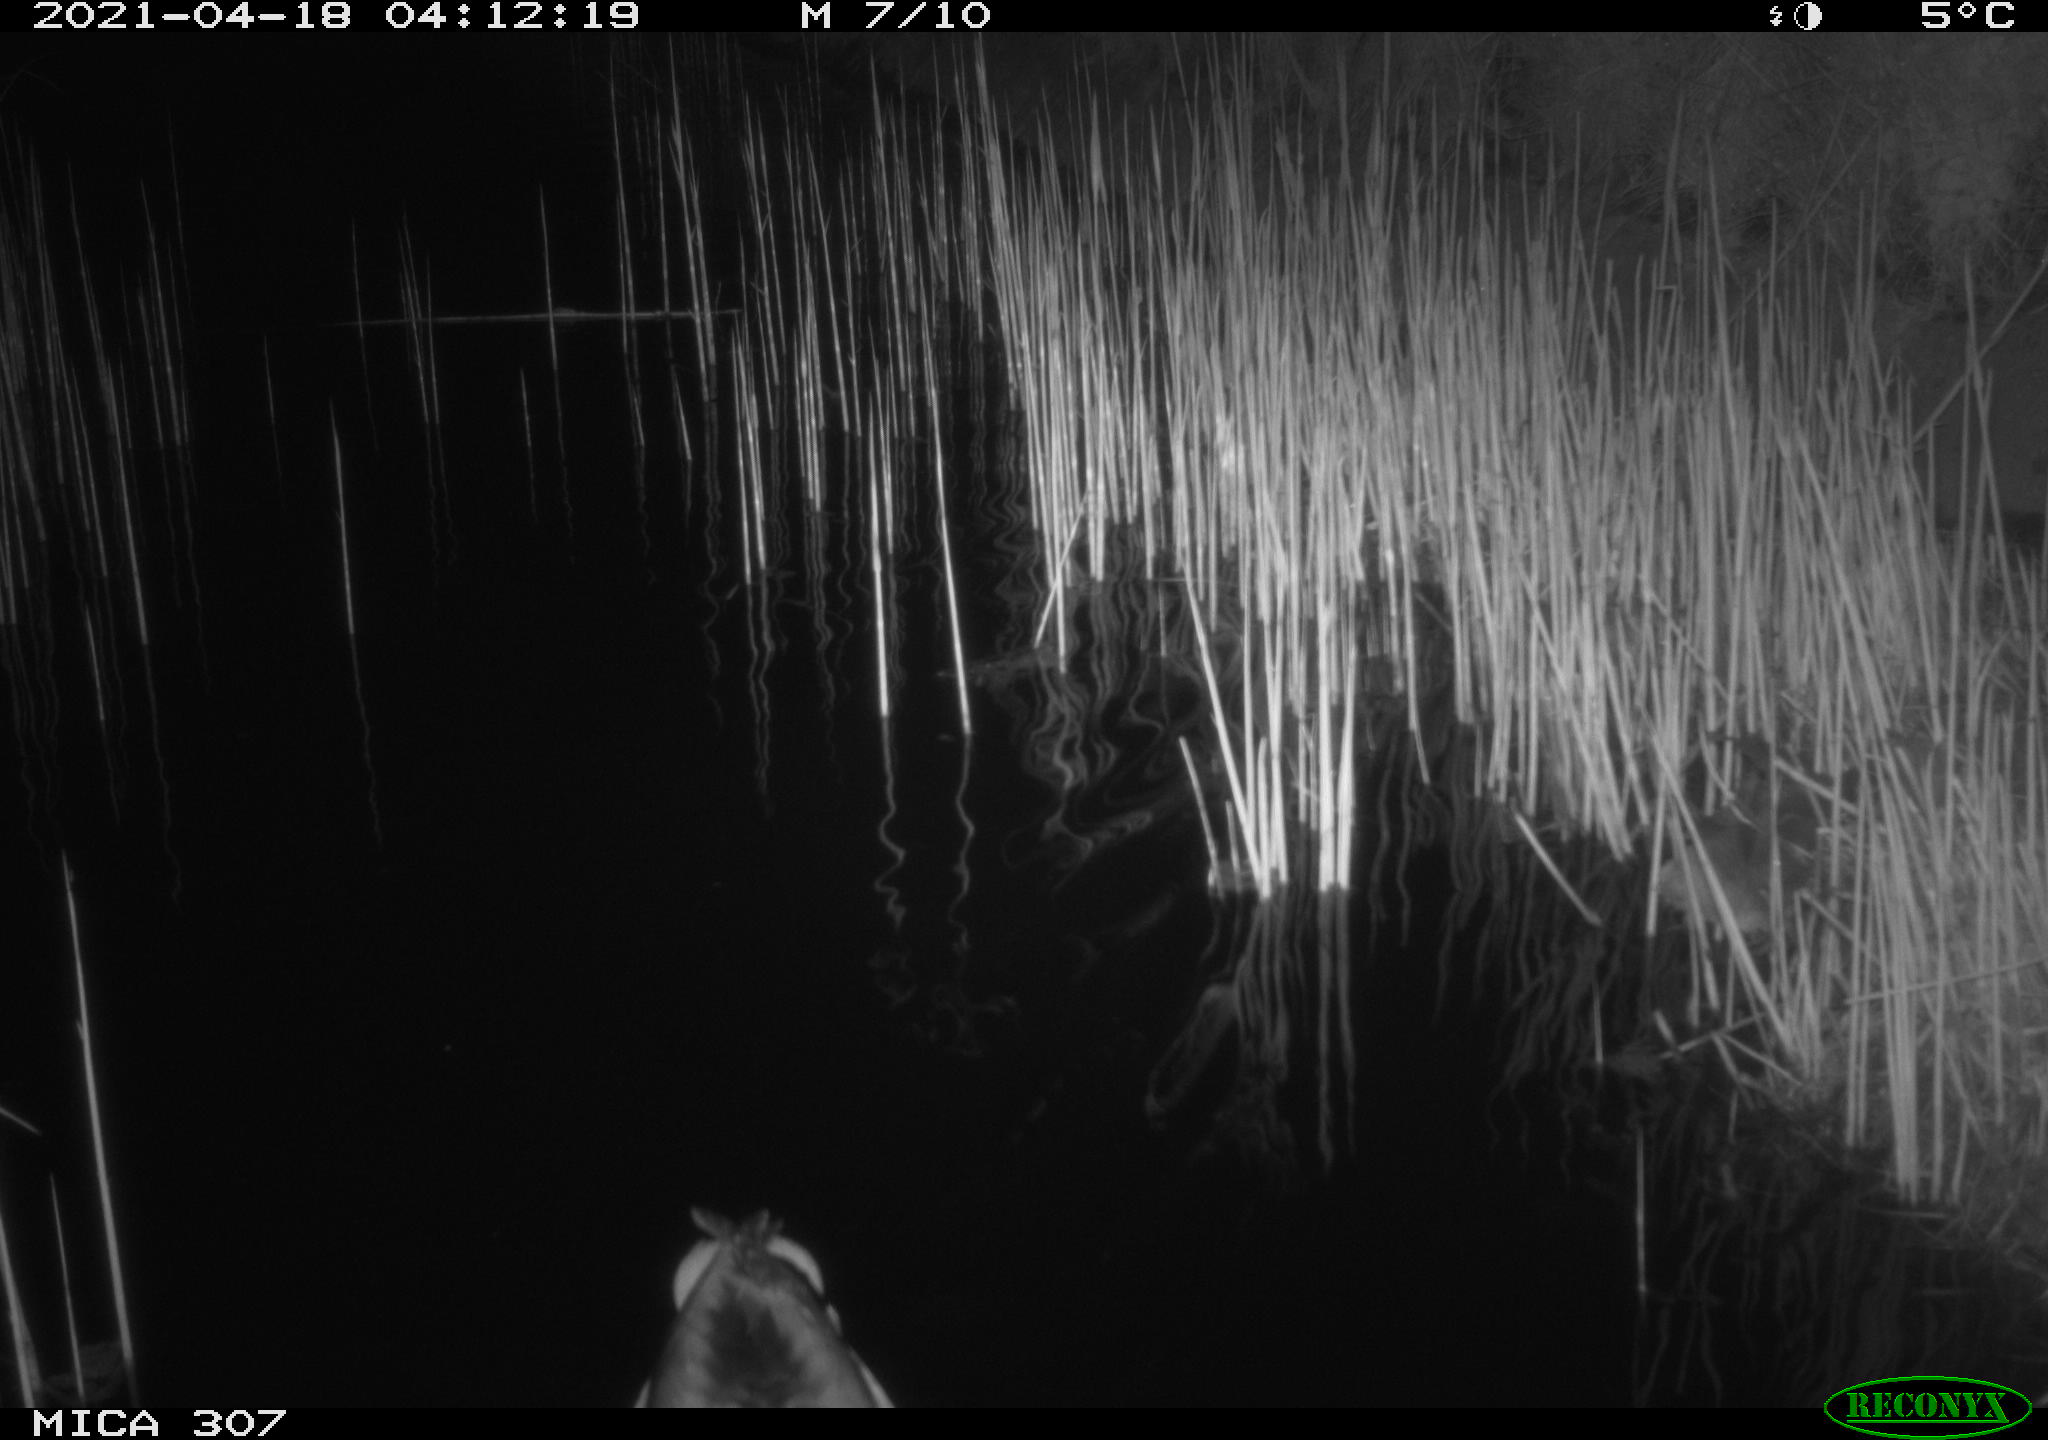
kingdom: Animalia
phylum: Chordata
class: Aves
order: Anseriformes
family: Anatidae
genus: Anas
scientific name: Anas platyrhynchos
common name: Mallard
